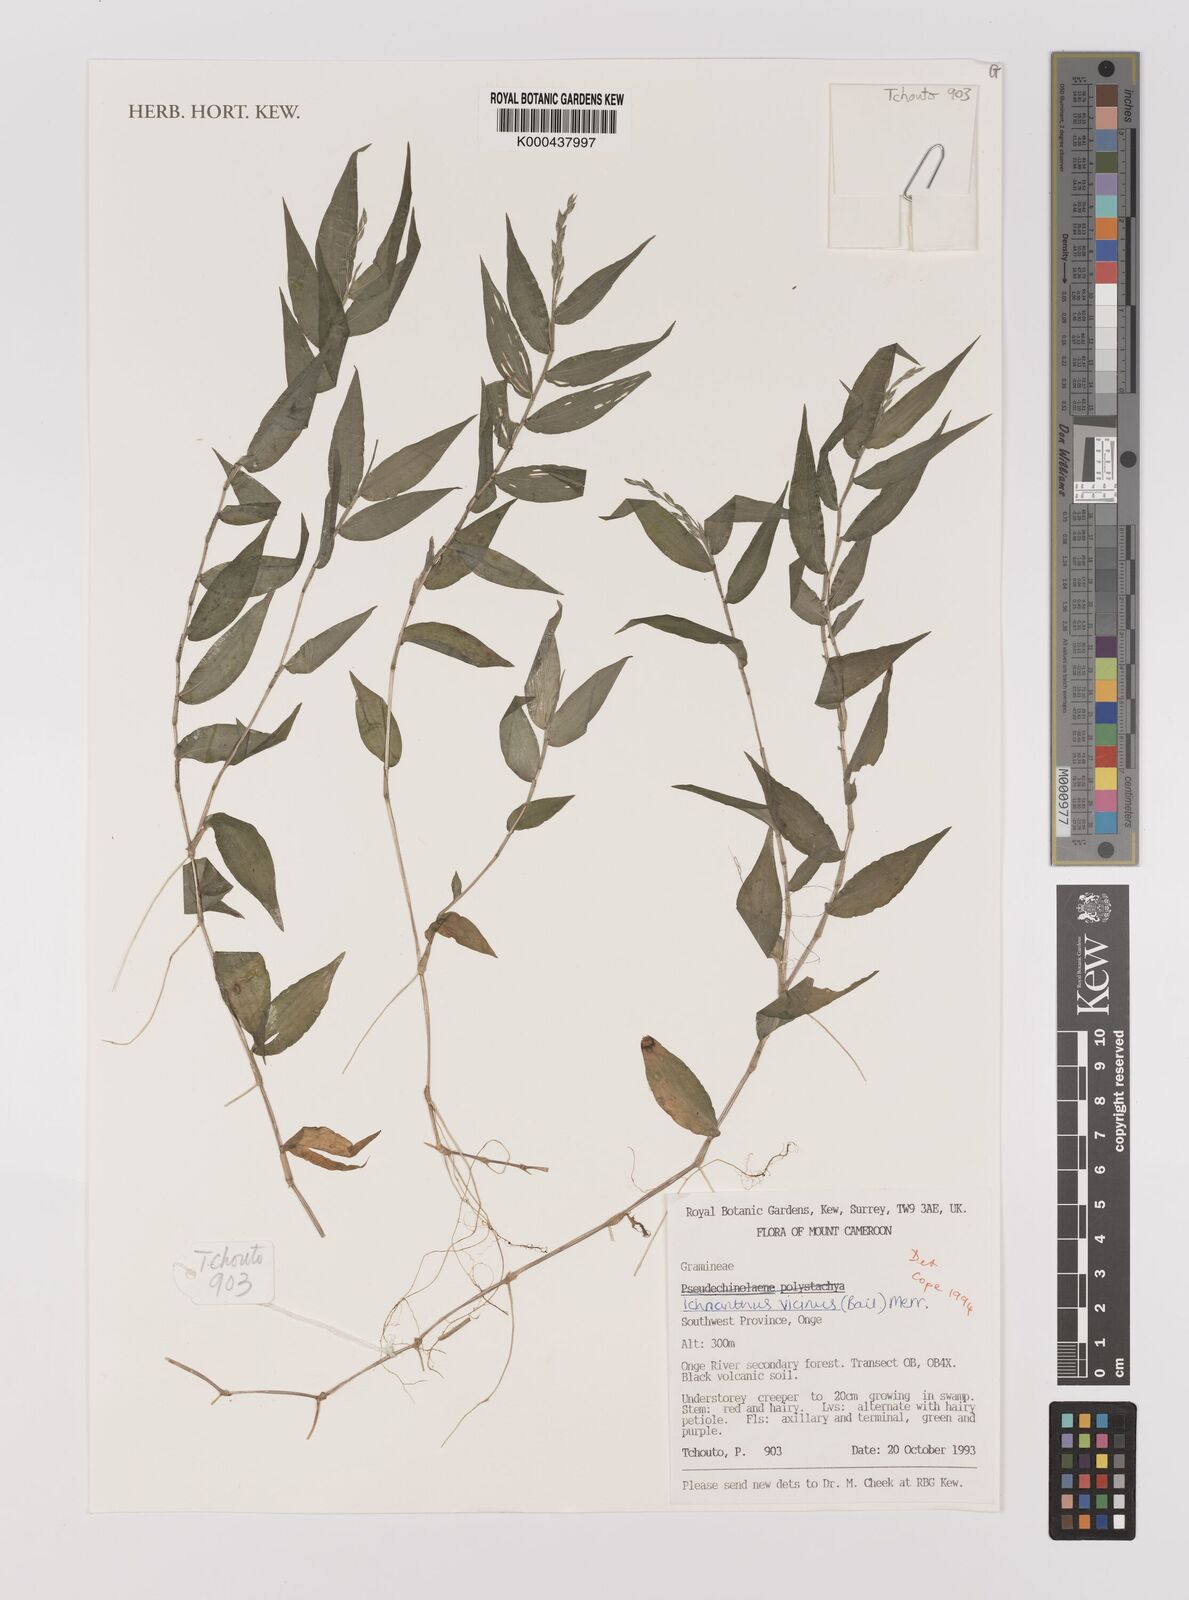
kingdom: Plantae
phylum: Tracheophyta
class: Liliopsida
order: Poales
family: Poaceae
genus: Ichnanthus
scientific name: Ichnanthus pallens
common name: Water grass
